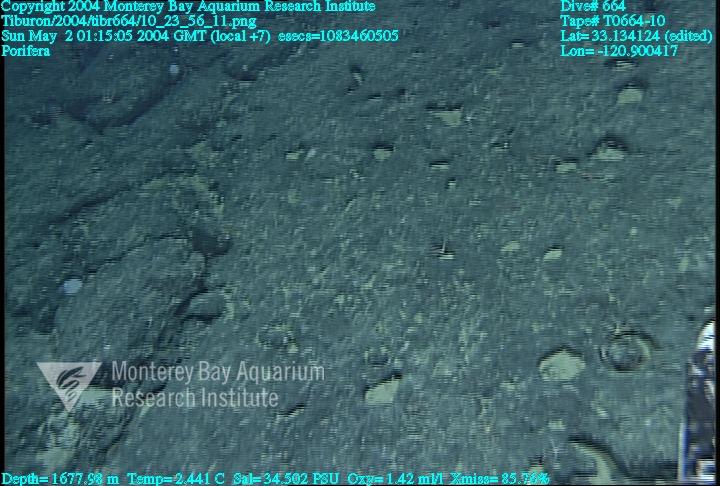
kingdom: Animalia
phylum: Porifera
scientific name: Porifera
